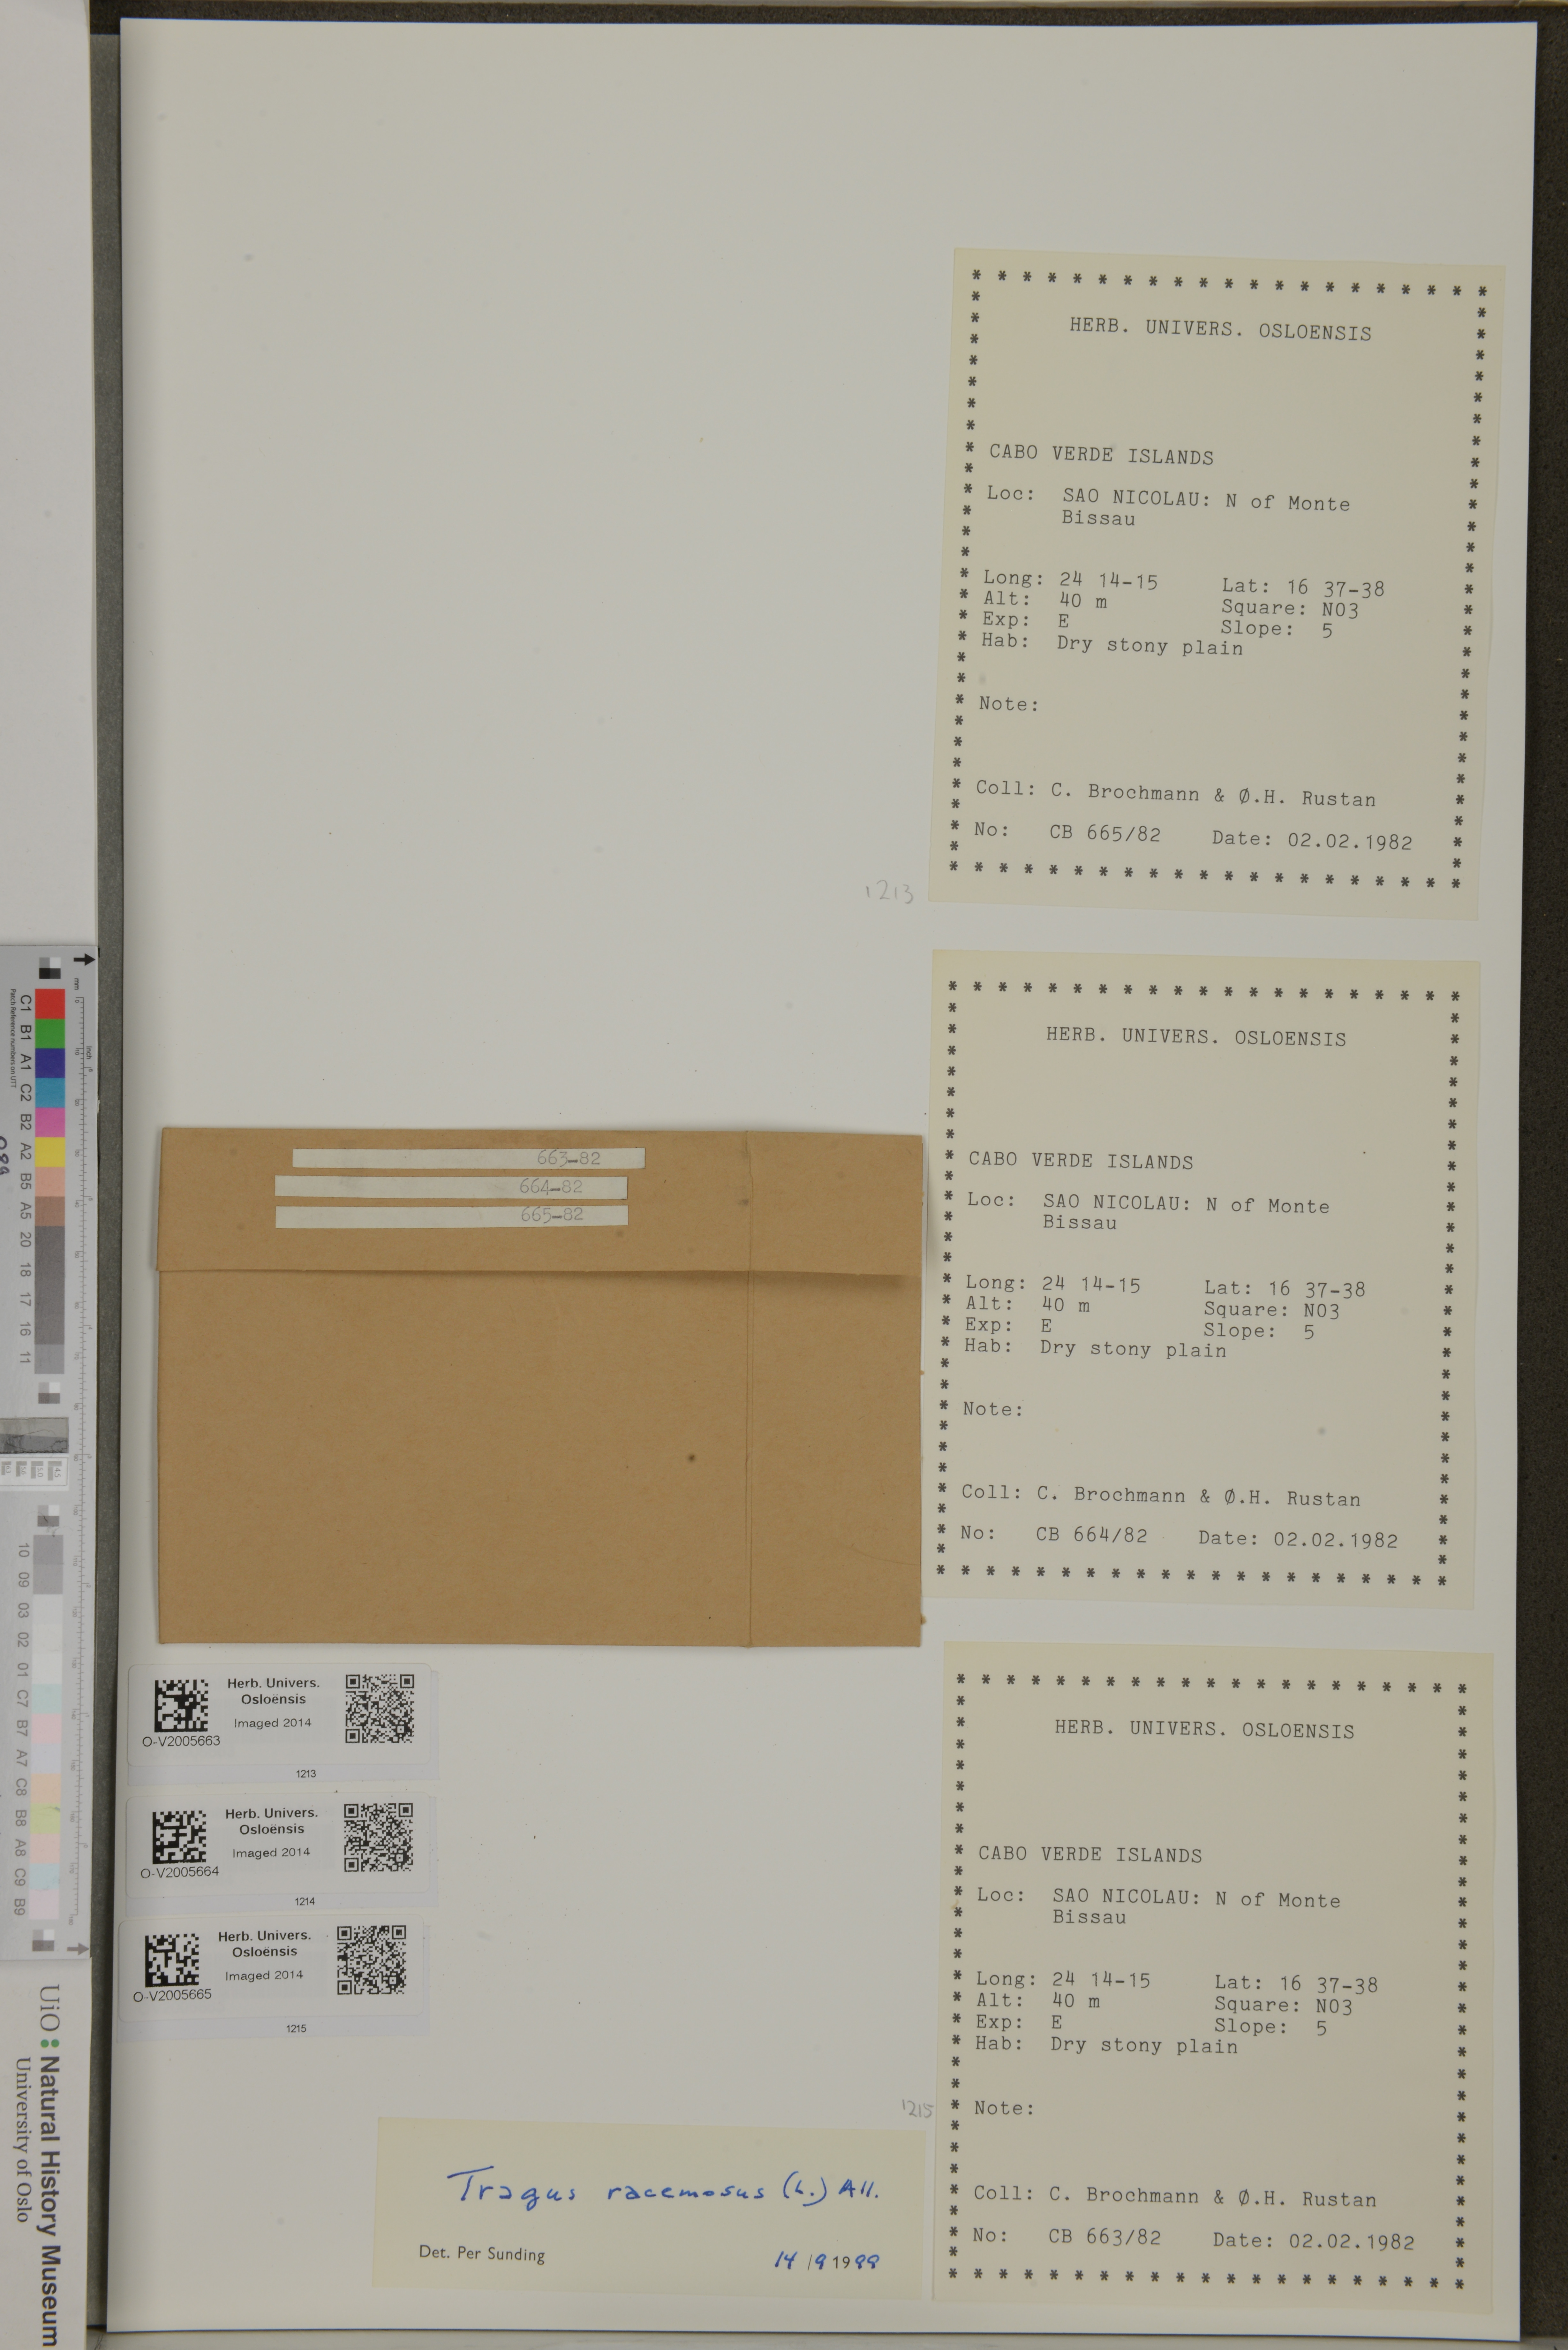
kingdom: Plantae
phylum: Tracheophyta
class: Liliopsida
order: Poales
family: Poaceae
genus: Tragus
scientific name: Tragus racemosus
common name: European bur-grass
